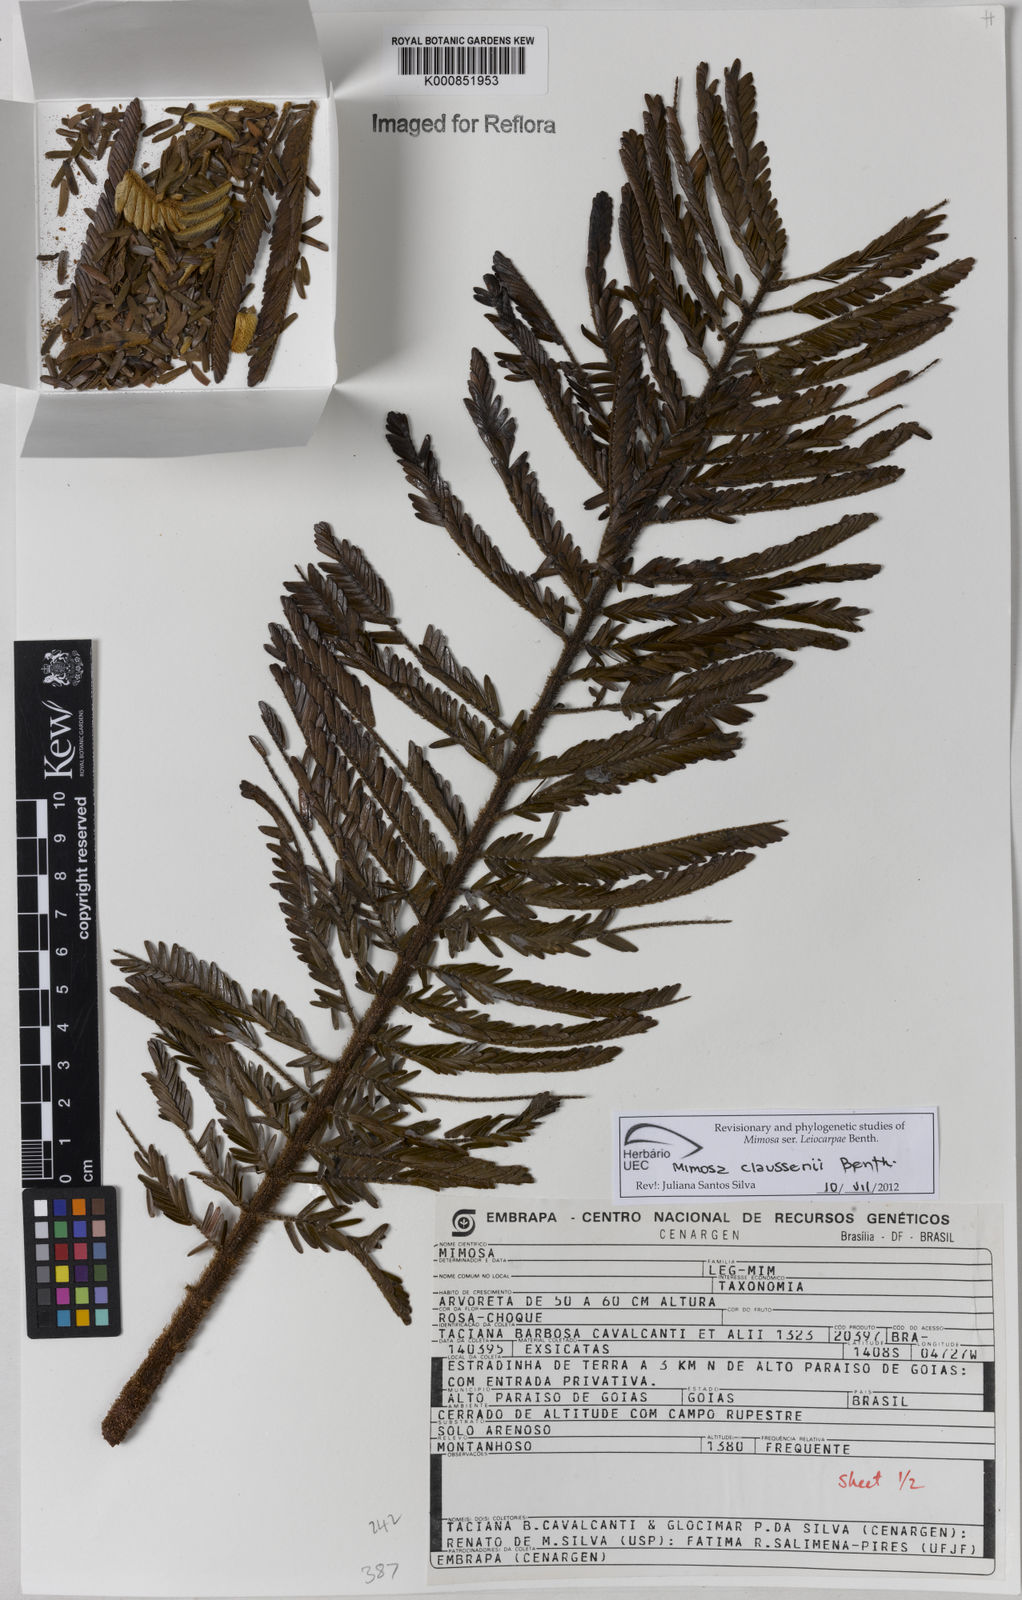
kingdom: Plantae
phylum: Tracheophyta
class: Magnoliopsida
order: Fabales
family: Fabaceae
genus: Mimosa
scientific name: Mimosa claussenii
